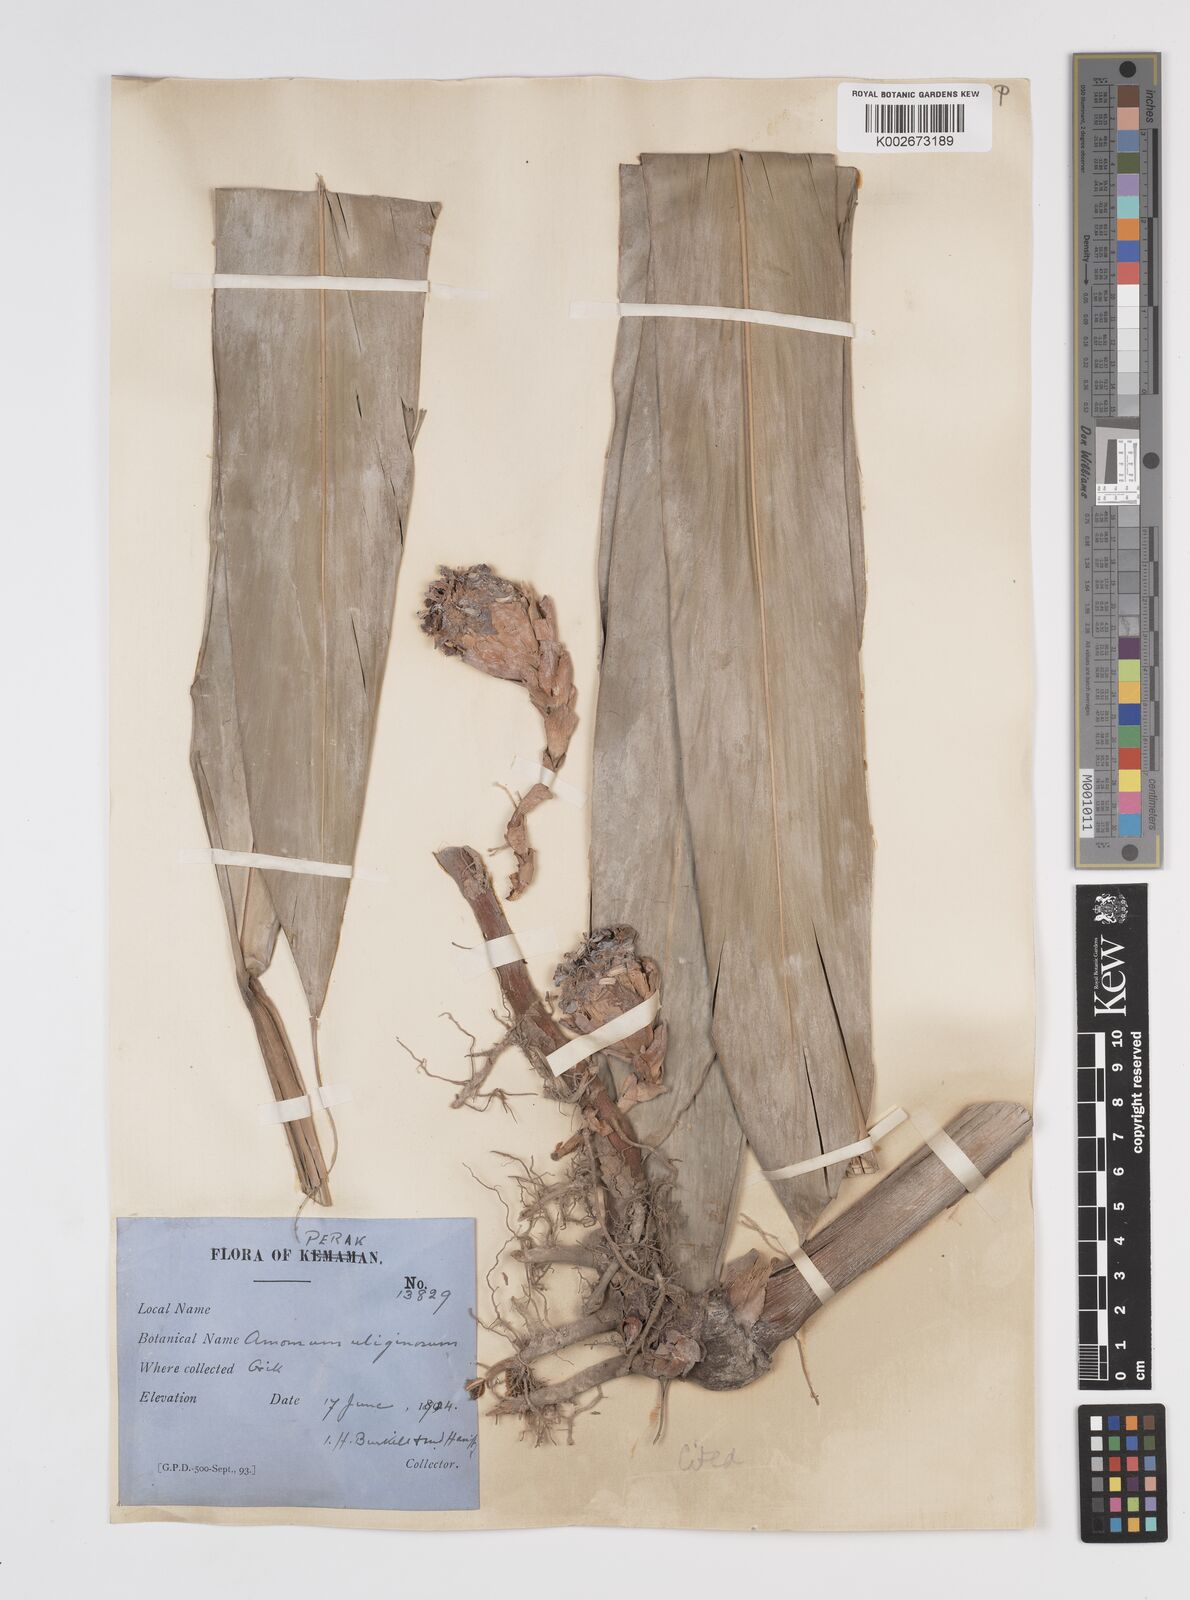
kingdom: Plantae
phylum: Tracheophyta
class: Liliopsida
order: Zingiberales
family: Zingiberaceae
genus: Wurfbainia
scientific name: Wurfbainia uliginosa
